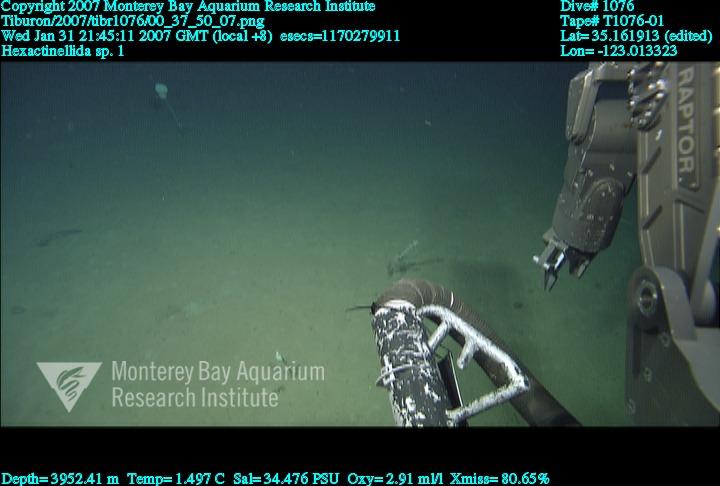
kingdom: Animalia
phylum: Porifera
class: Hexactinellida
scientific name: Hexactinellida
